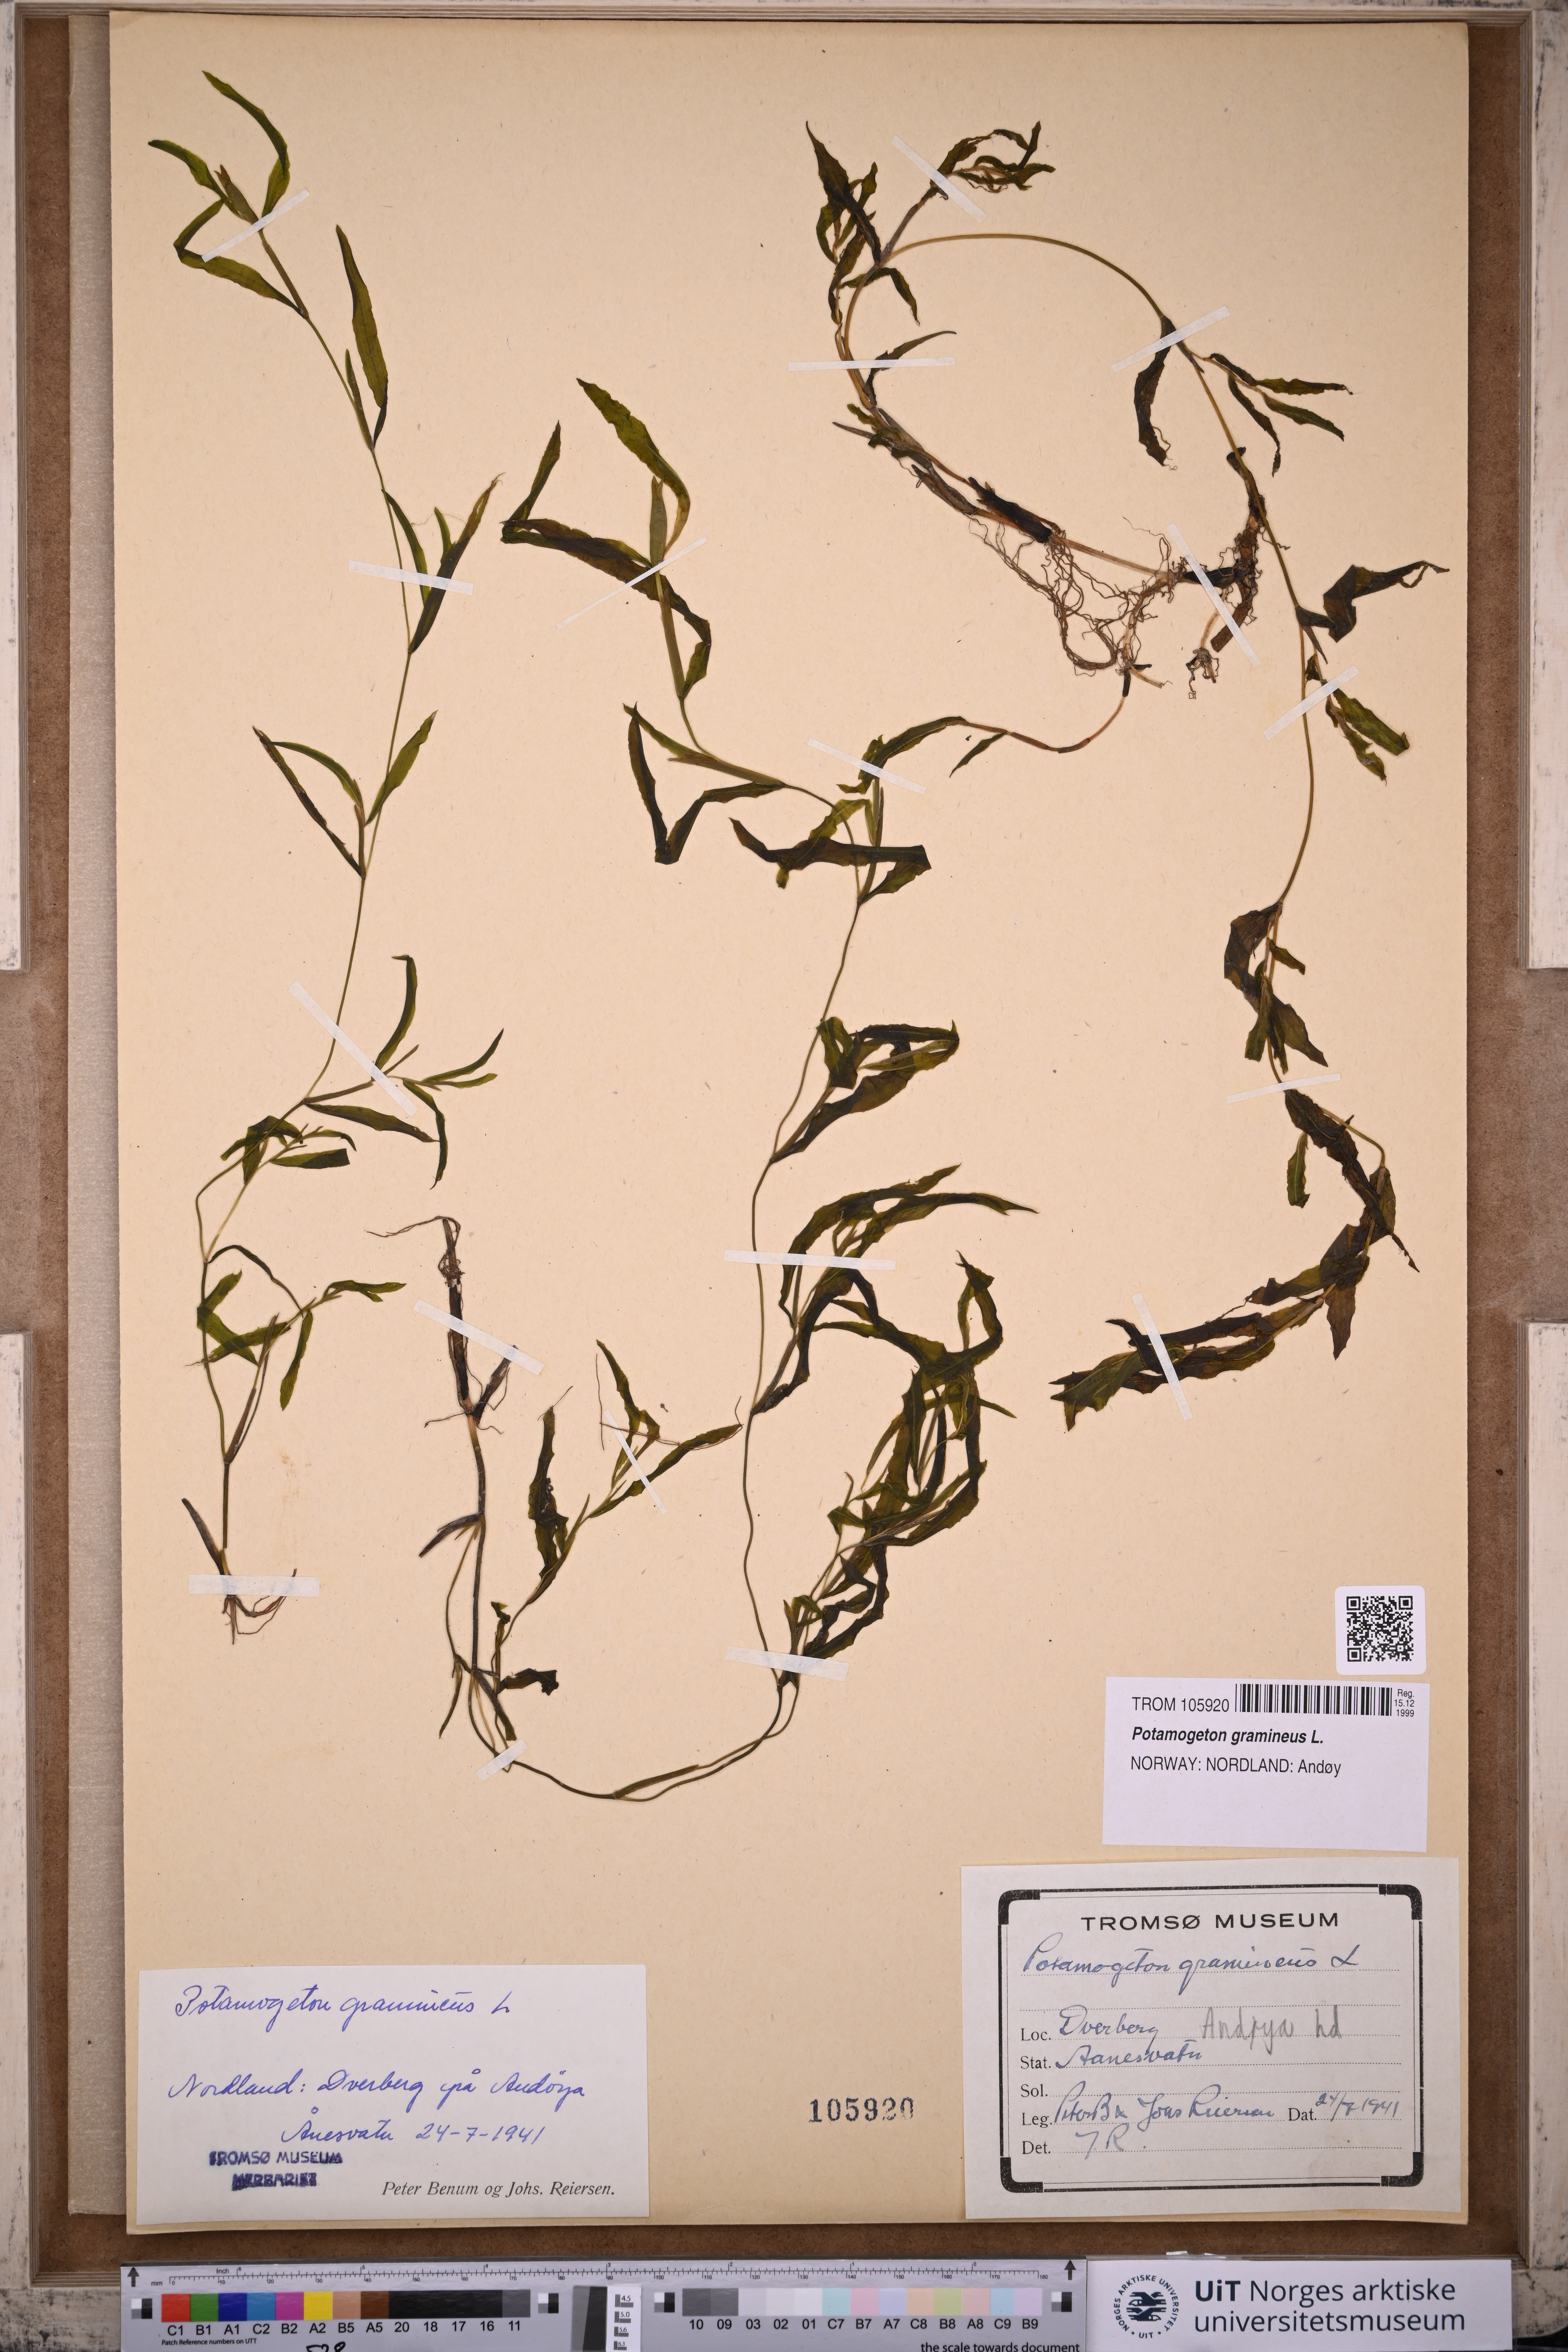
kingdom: Plantae
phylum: Tracheophyta
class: Liliopsida
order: Alismatales
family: Potamogetonaceae
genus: Potamogeton
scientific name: Potamogeton gramineus
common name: Various-leaved pondweed
